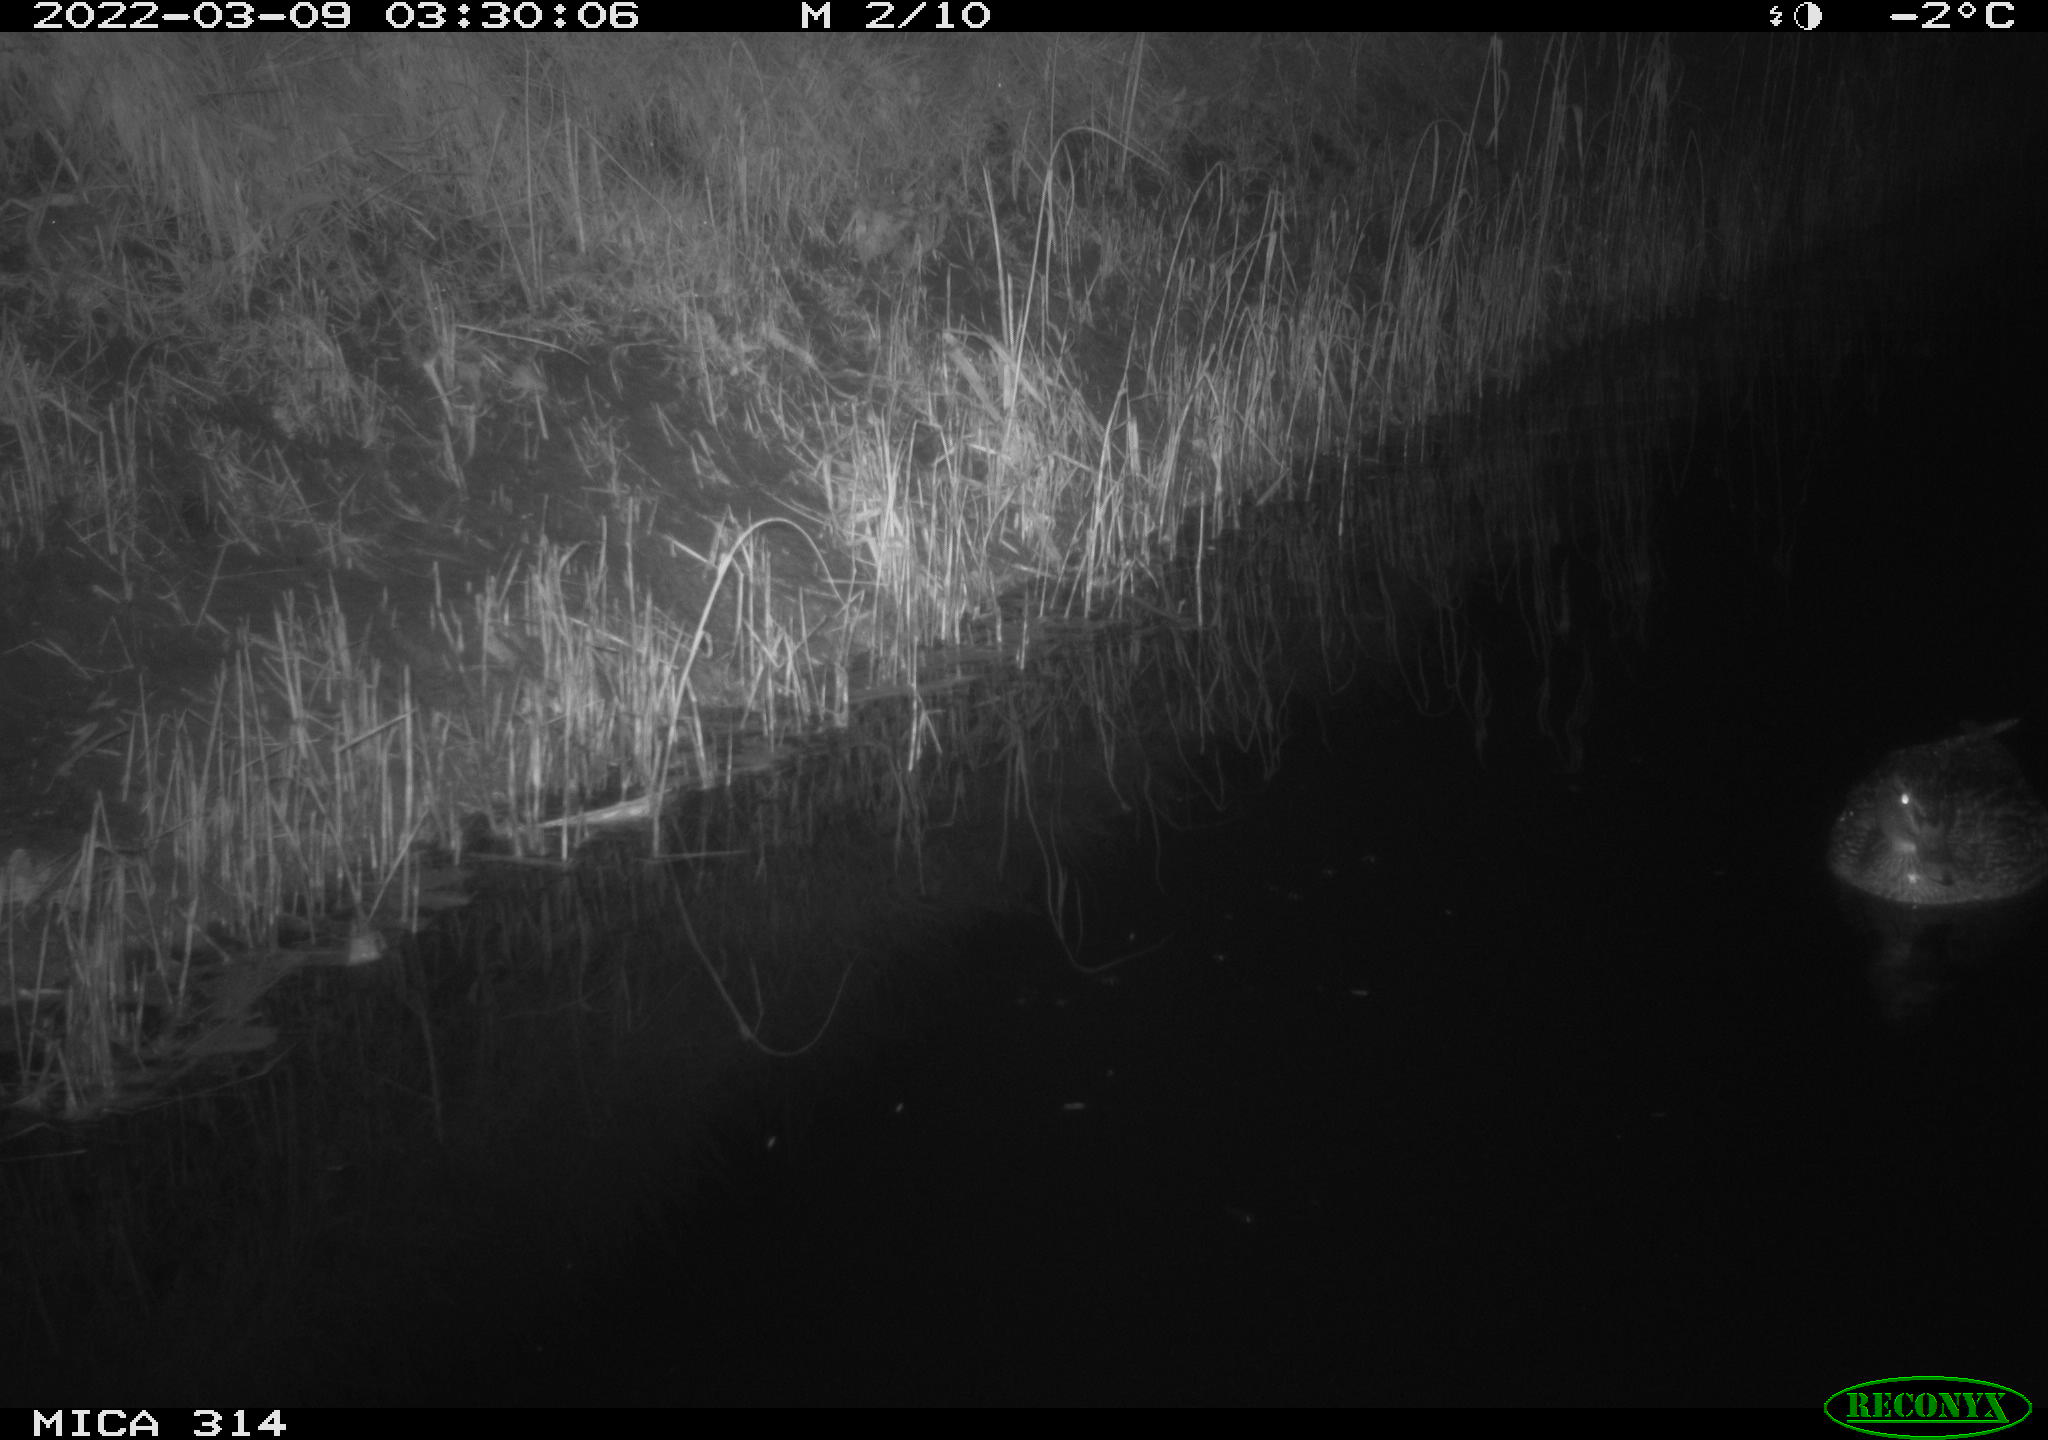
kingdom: Animalia
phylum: Chordata
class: Aves
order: Anseriformes
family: Anatidae
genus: Anas
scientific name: Anas platyrhynchos
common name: Mallard
